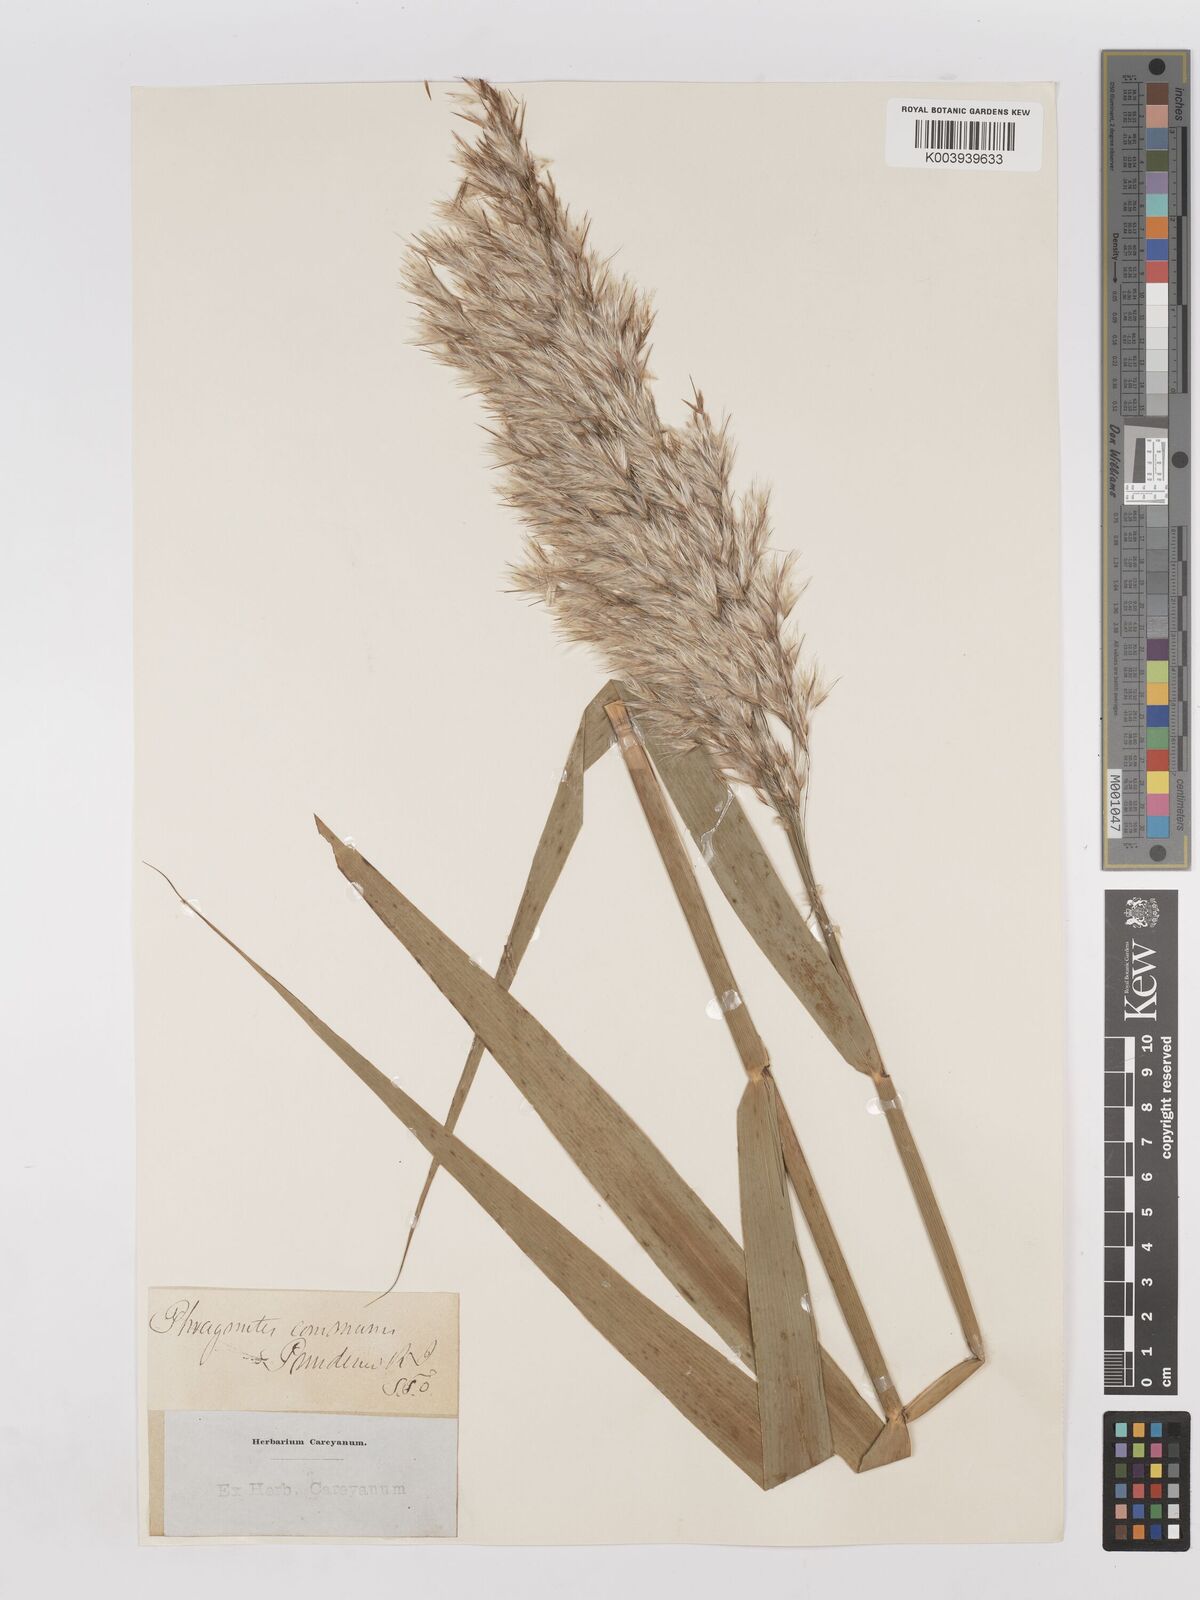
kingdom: Plantae
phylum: Tracheophyta
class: Liliopsida
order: Poales
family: Poaceae
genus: Phragmites
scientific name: Phragmites australis
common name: Common reed
